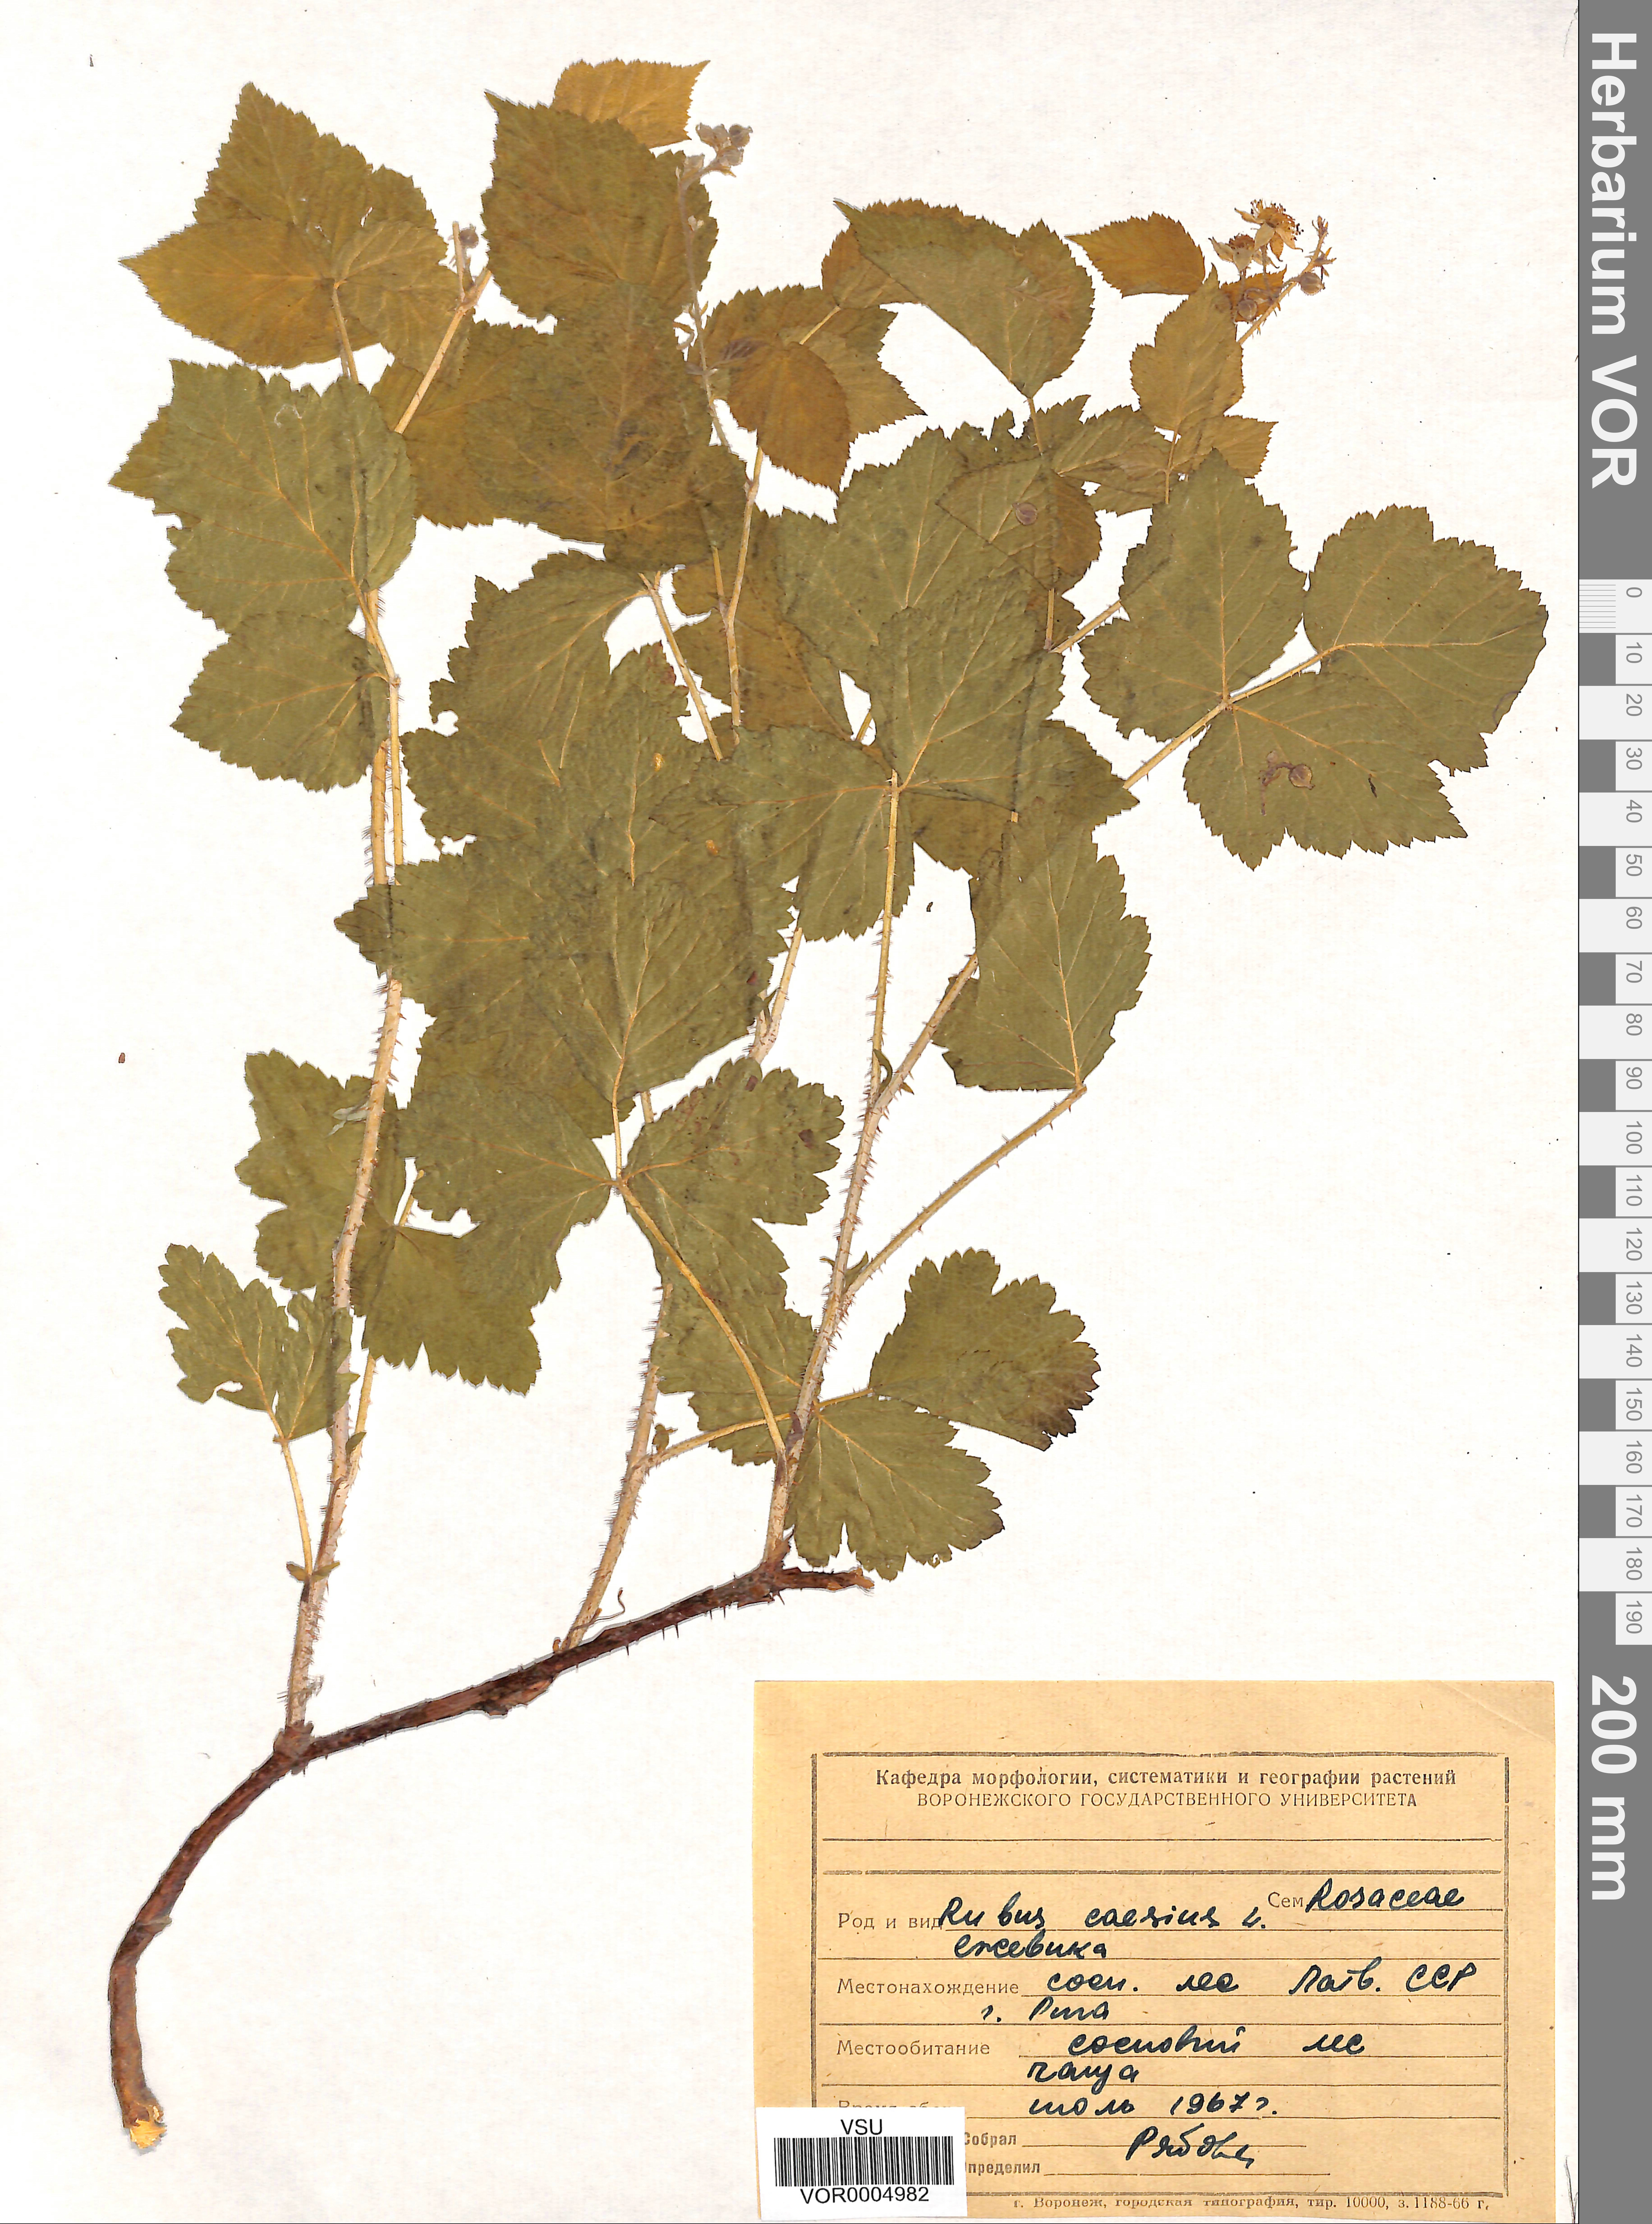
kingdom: Plantae
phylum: Tracheophyta
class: Magnoliopsida
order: Rosales
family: Rosaceae
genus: Rubus
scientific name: Rubus caesius
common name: Dewberry
